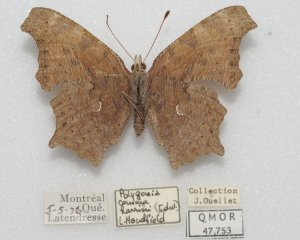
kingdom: Animalia
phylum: Arthropoda
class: Insecta
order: Lepidoptera
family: Nymphalidae
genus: Polygonia
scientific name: Polygonia comma
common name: Eastern Comma
